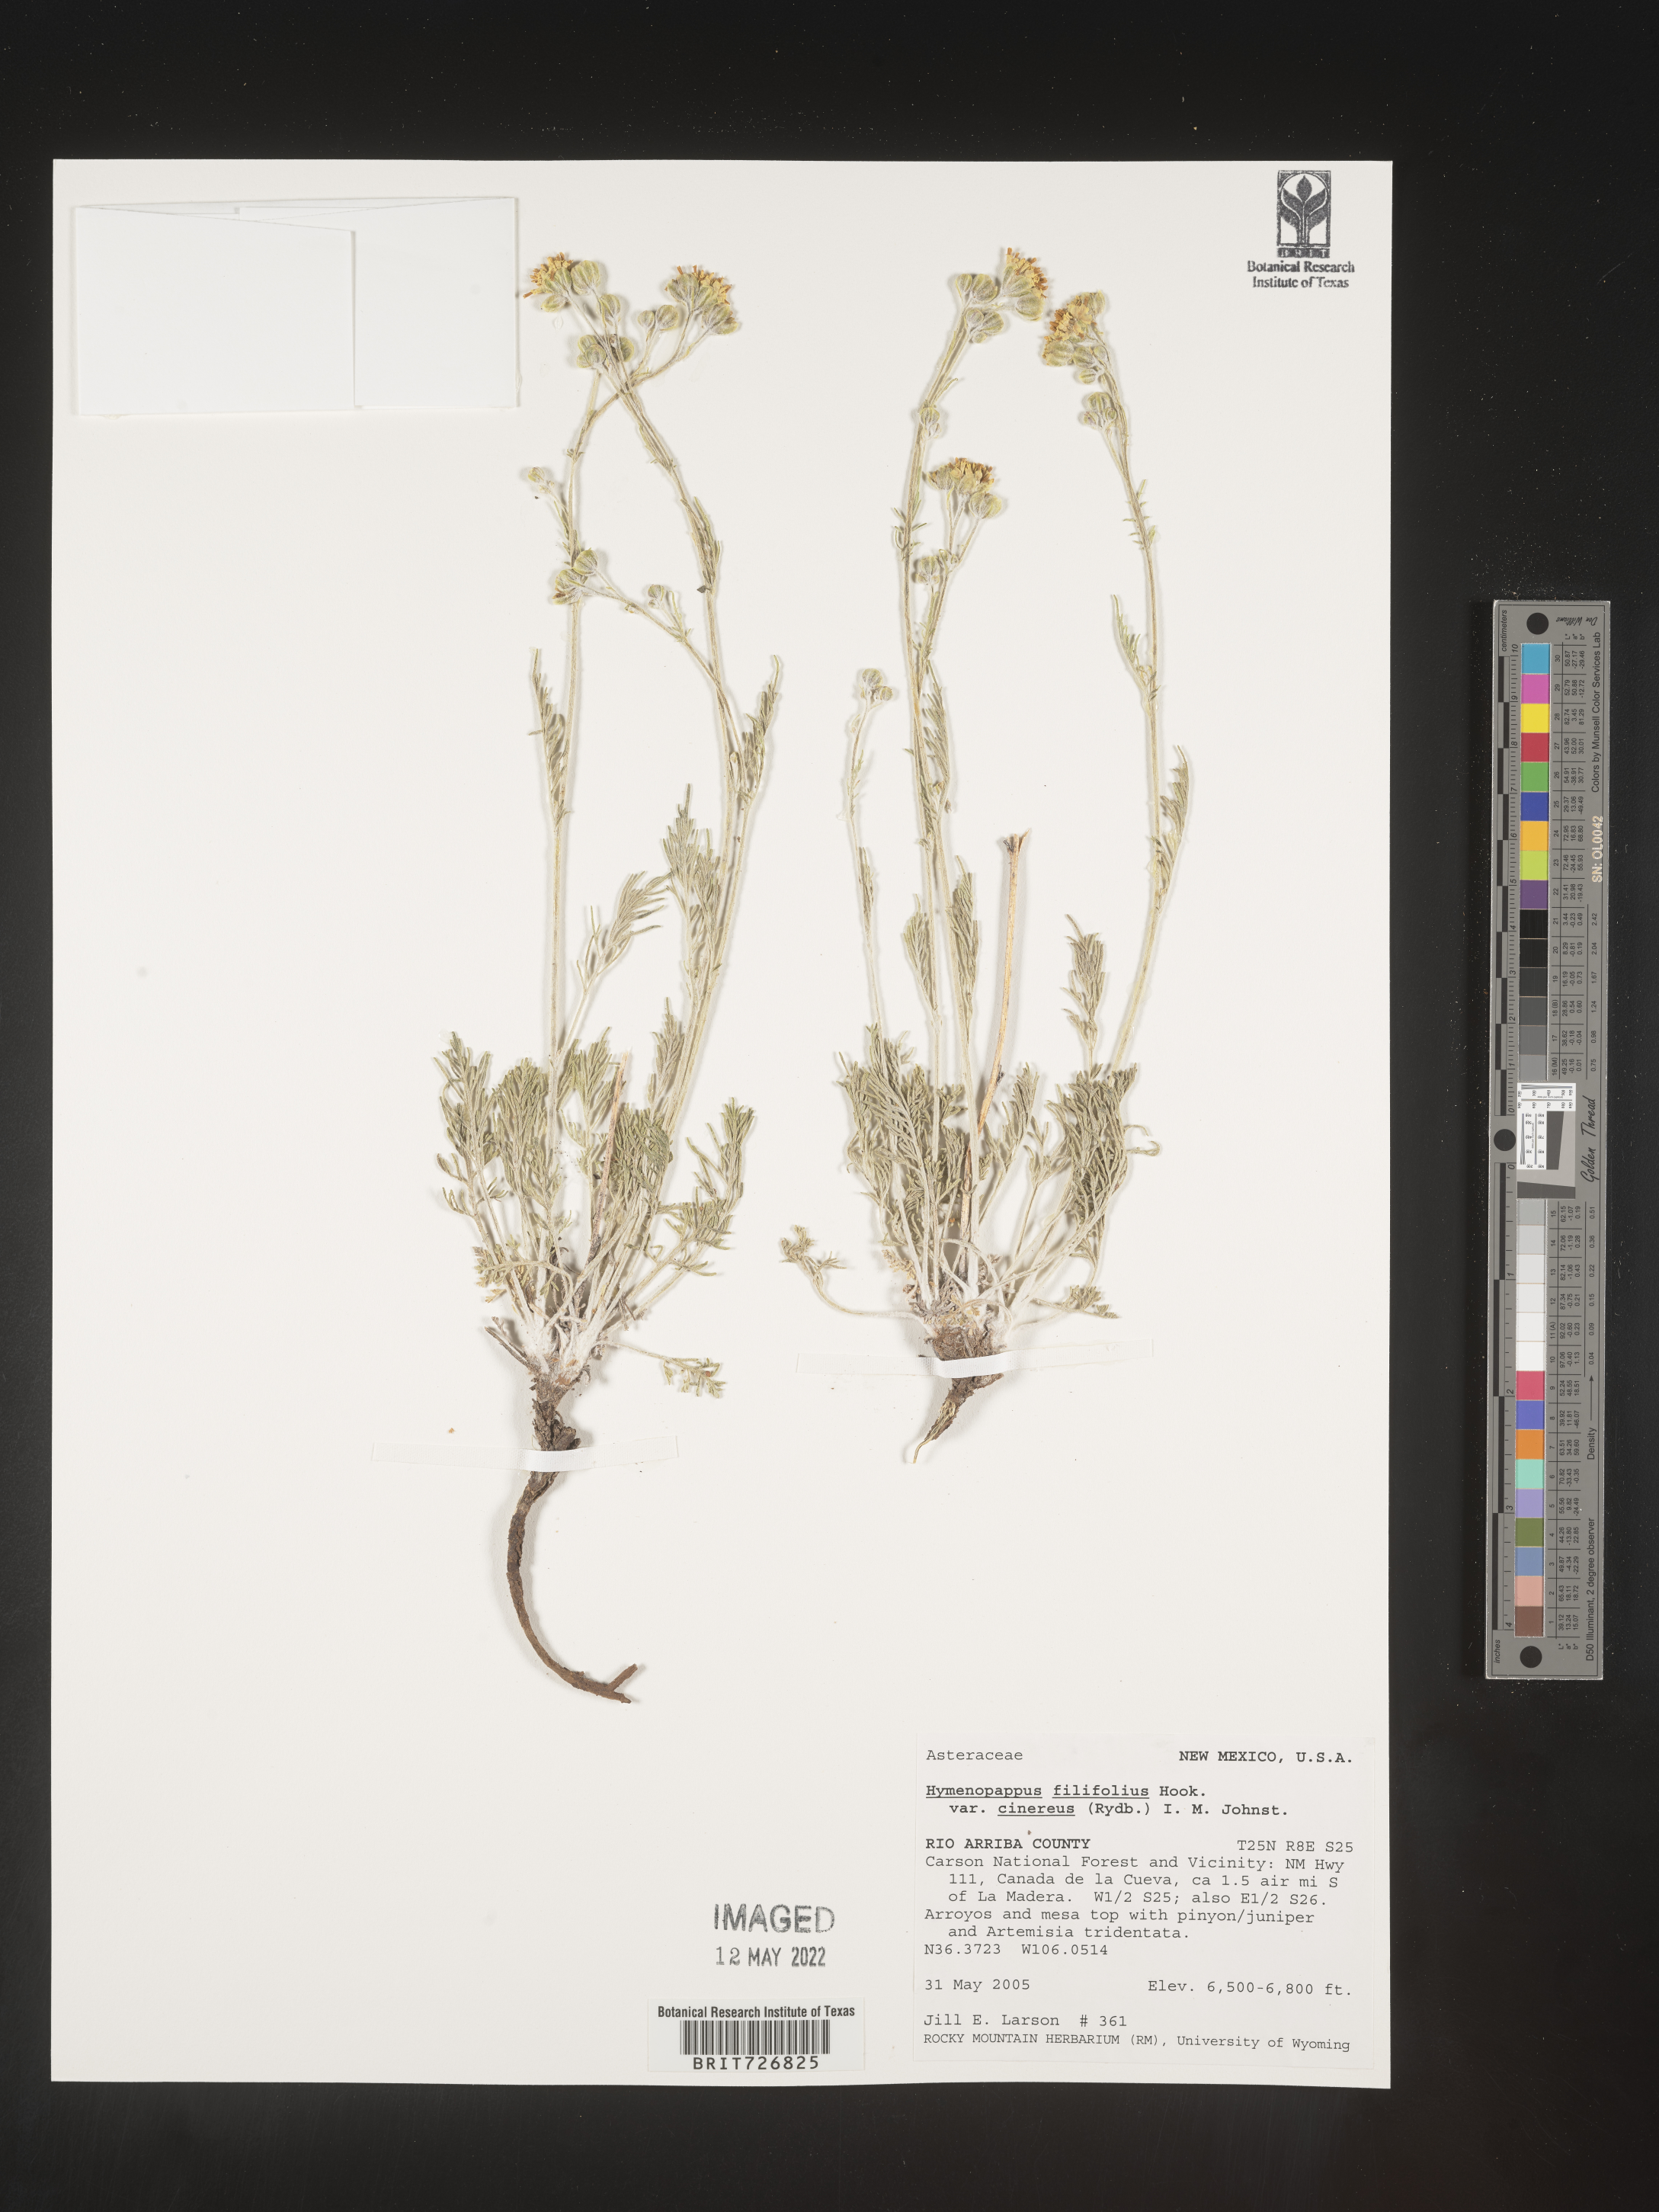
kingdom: Plantae
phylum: Tracheophyta
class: Magnoliopsida
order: Asterales
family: Asteraceae
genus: Hymenopappus
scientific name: Hymenopappus filifolius
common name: Columbia cutleaf
